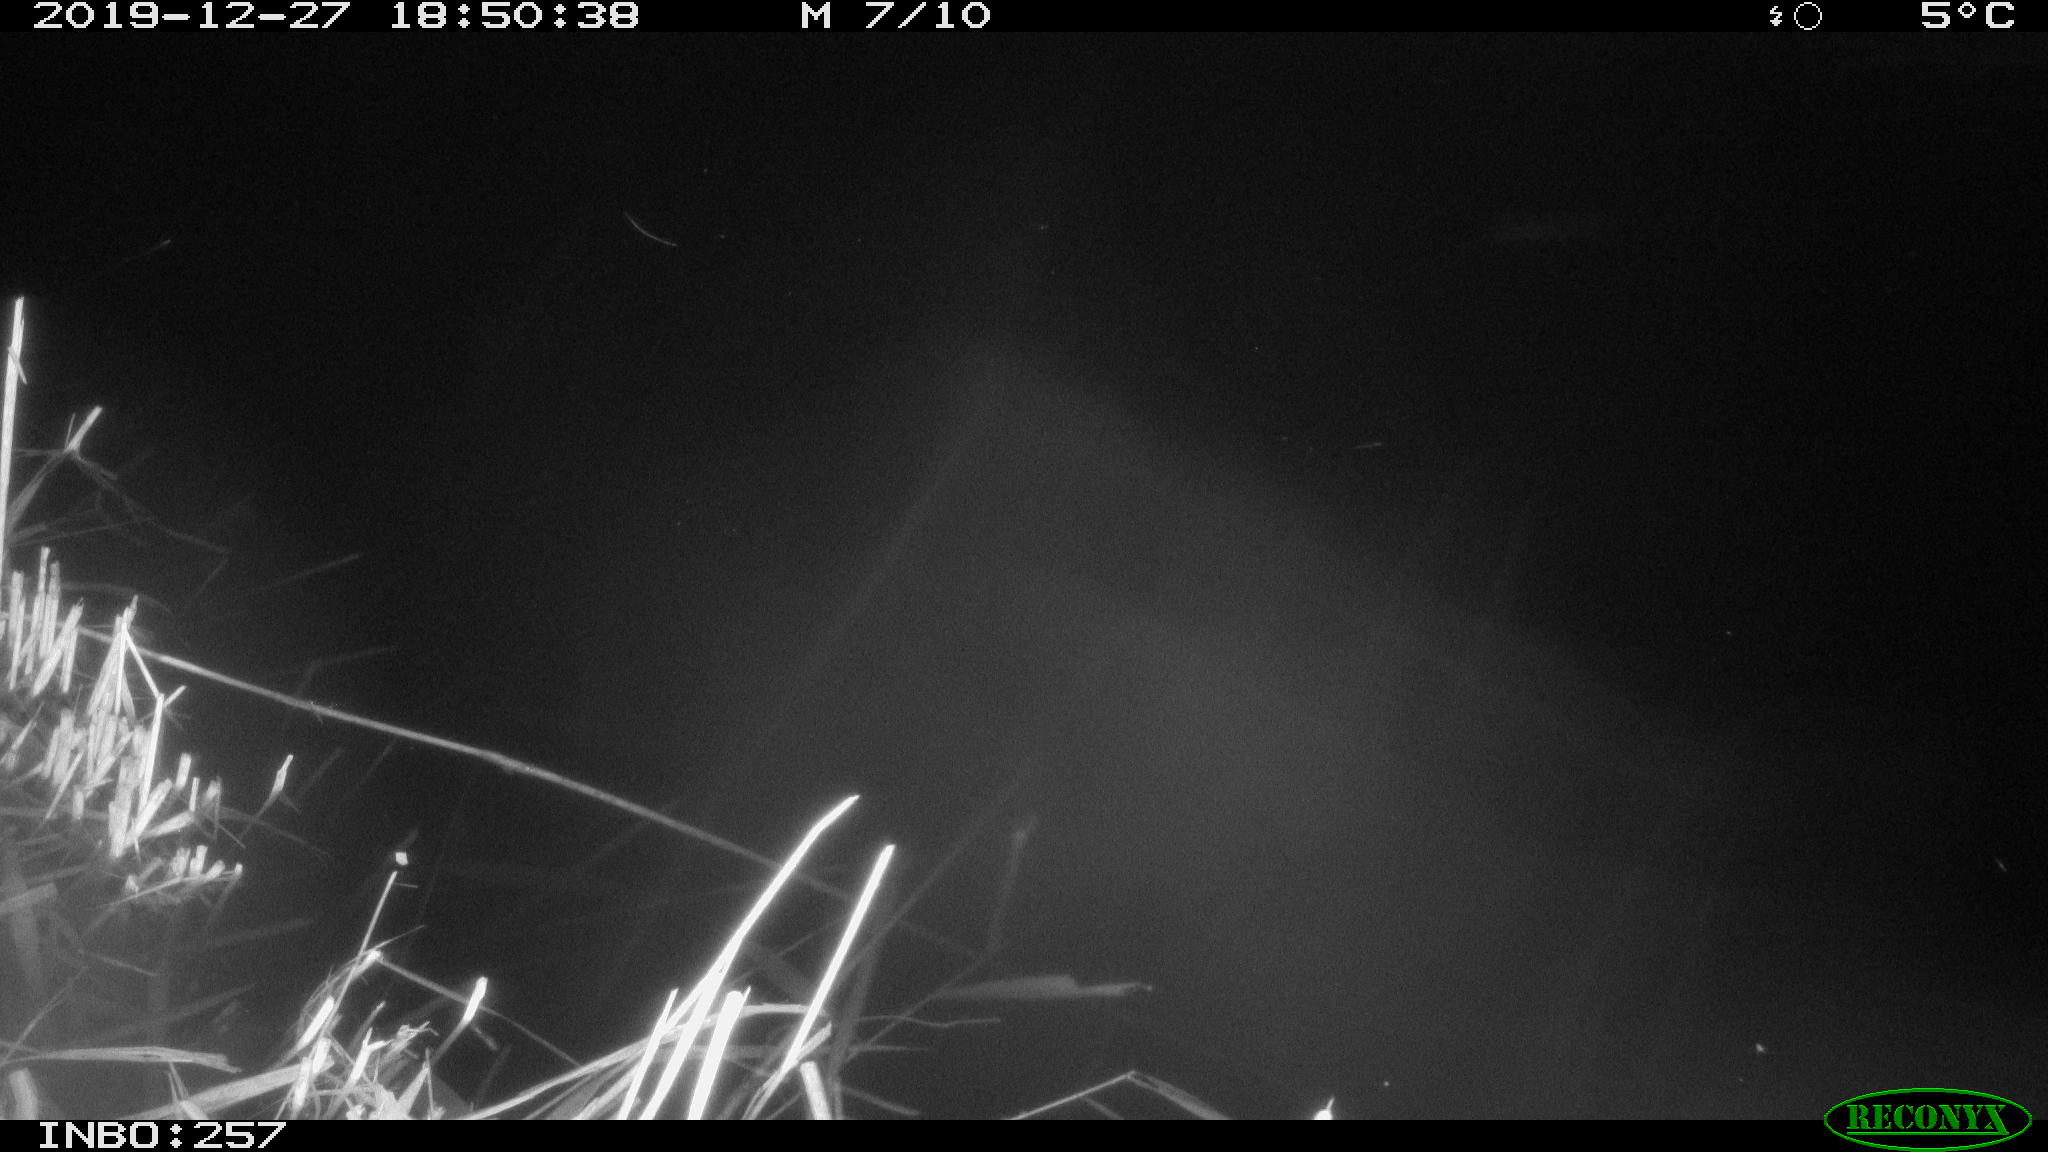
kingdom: Animalia
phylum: Chordata
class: Mammalia
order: Rodentia
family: Muridae
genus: Rattus
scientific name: Rattus norvegicus
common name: Brown rat
